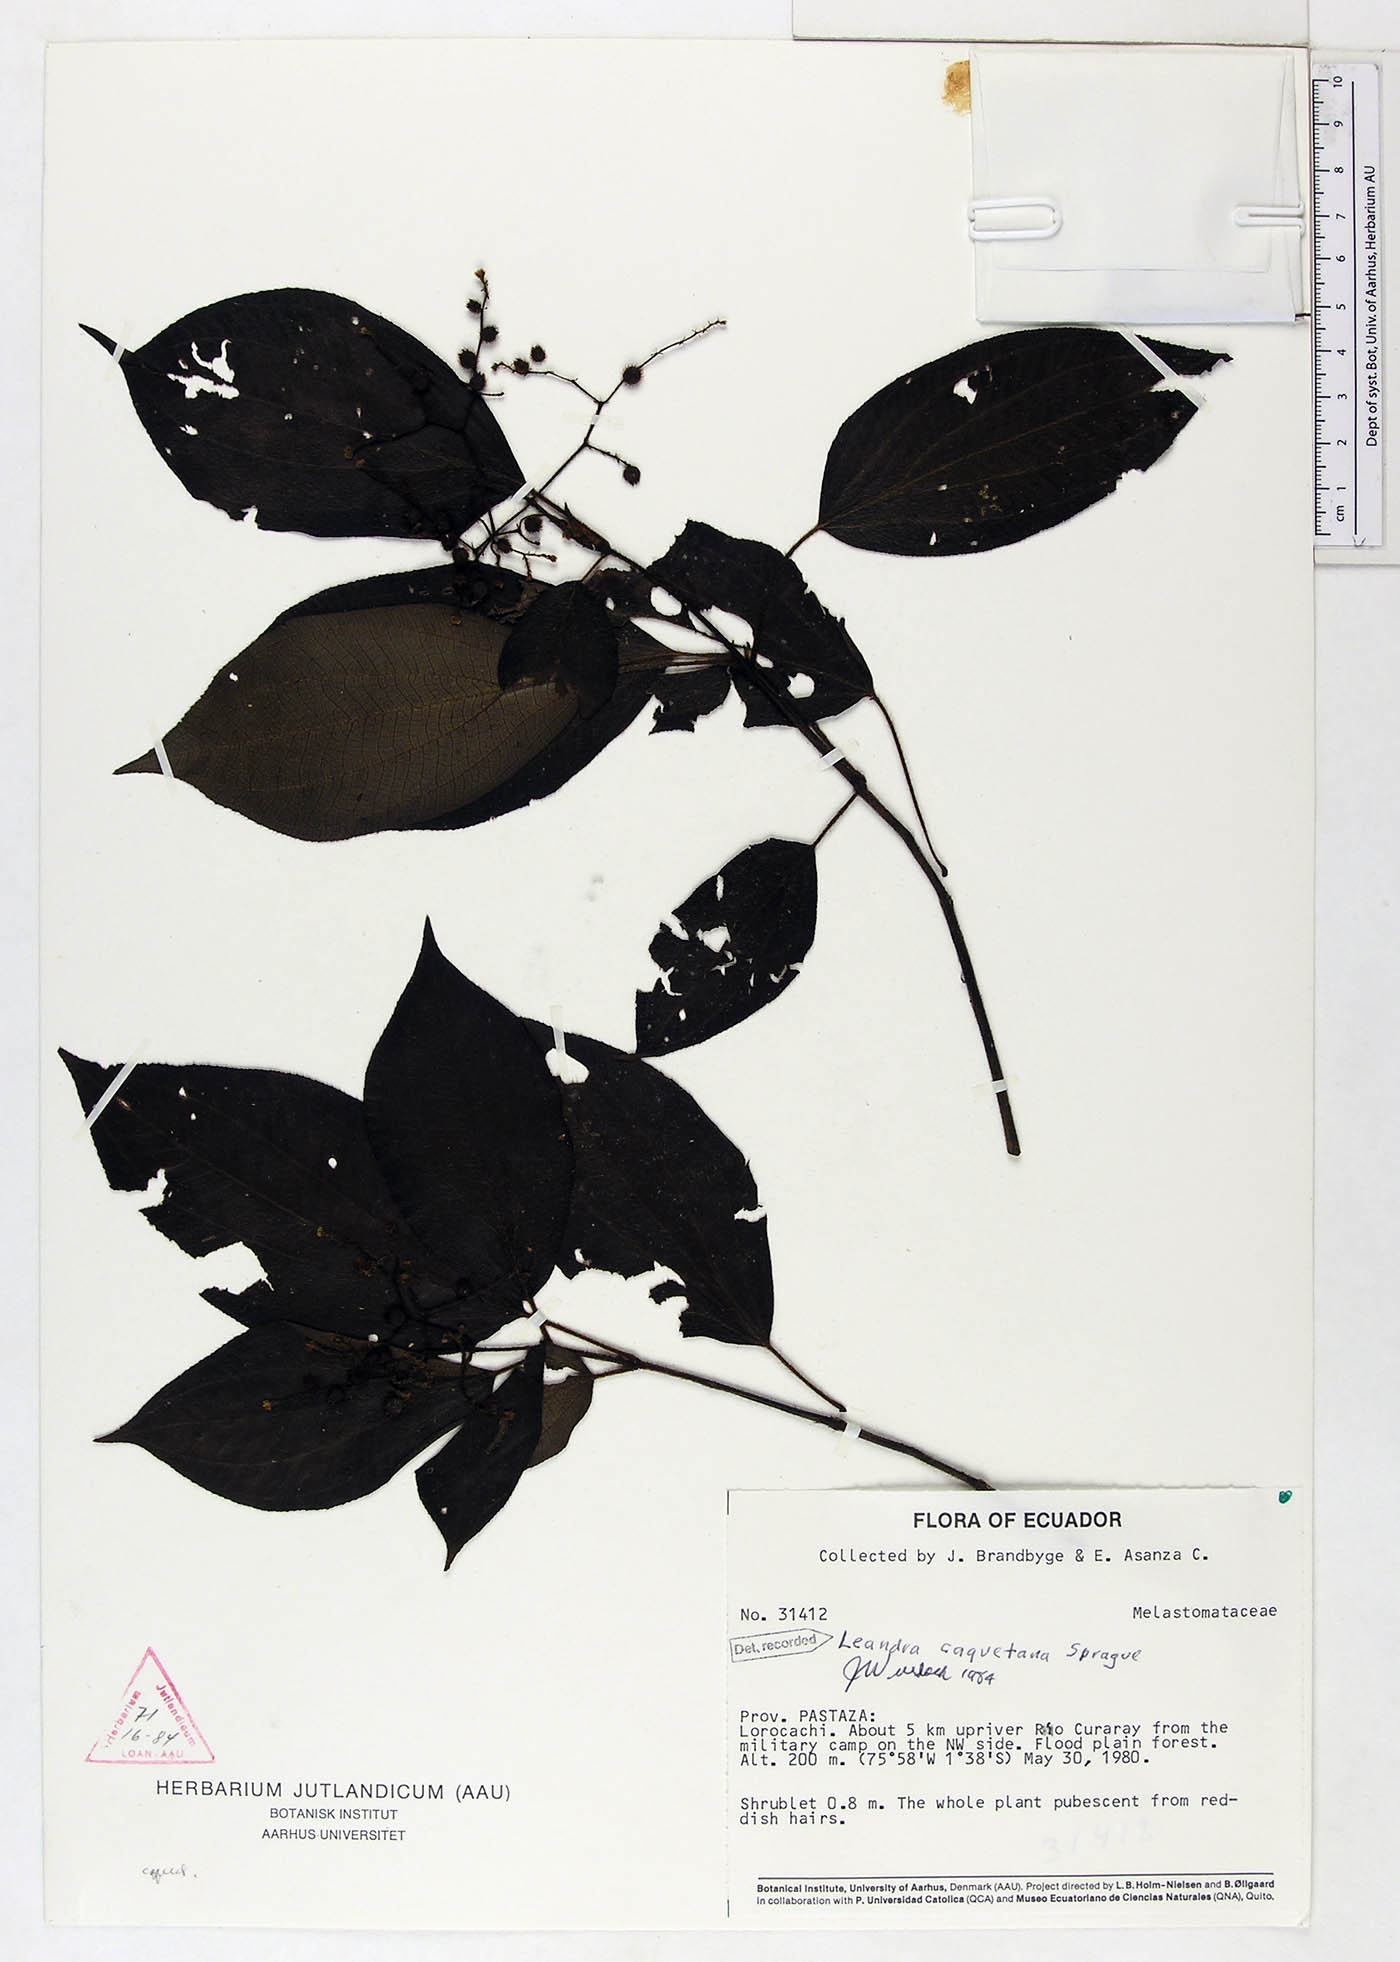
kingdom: Plantae
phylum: Tracheophyta
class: Magnoliopsida
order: Myrtales
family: Melastomataceae
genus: Miconia
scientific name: Miconia secuncaquetana
